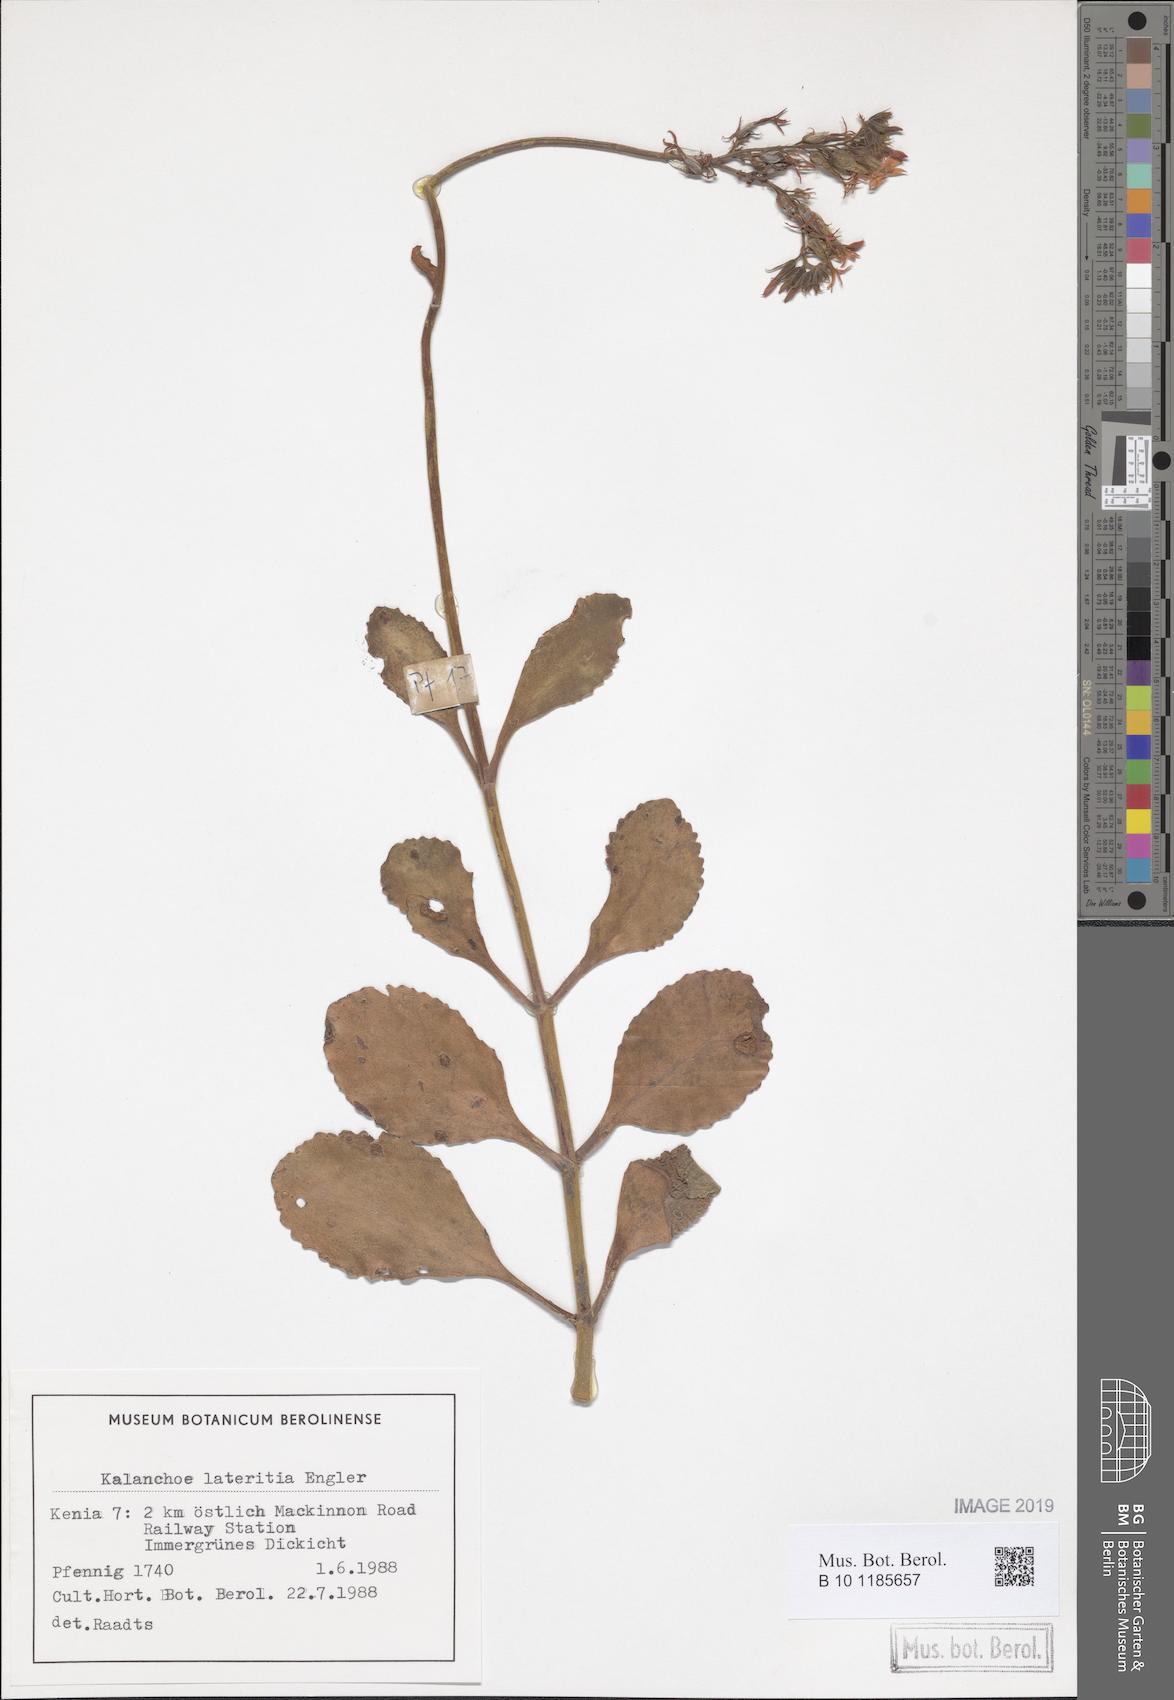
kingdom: Plantae
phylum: Tracheophyta
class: Magnoliopsida
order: Saxifragales
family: Crassulaceae
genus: Kalanchoe
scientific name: Kalanchoe lateritia
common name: Kalanchoe
